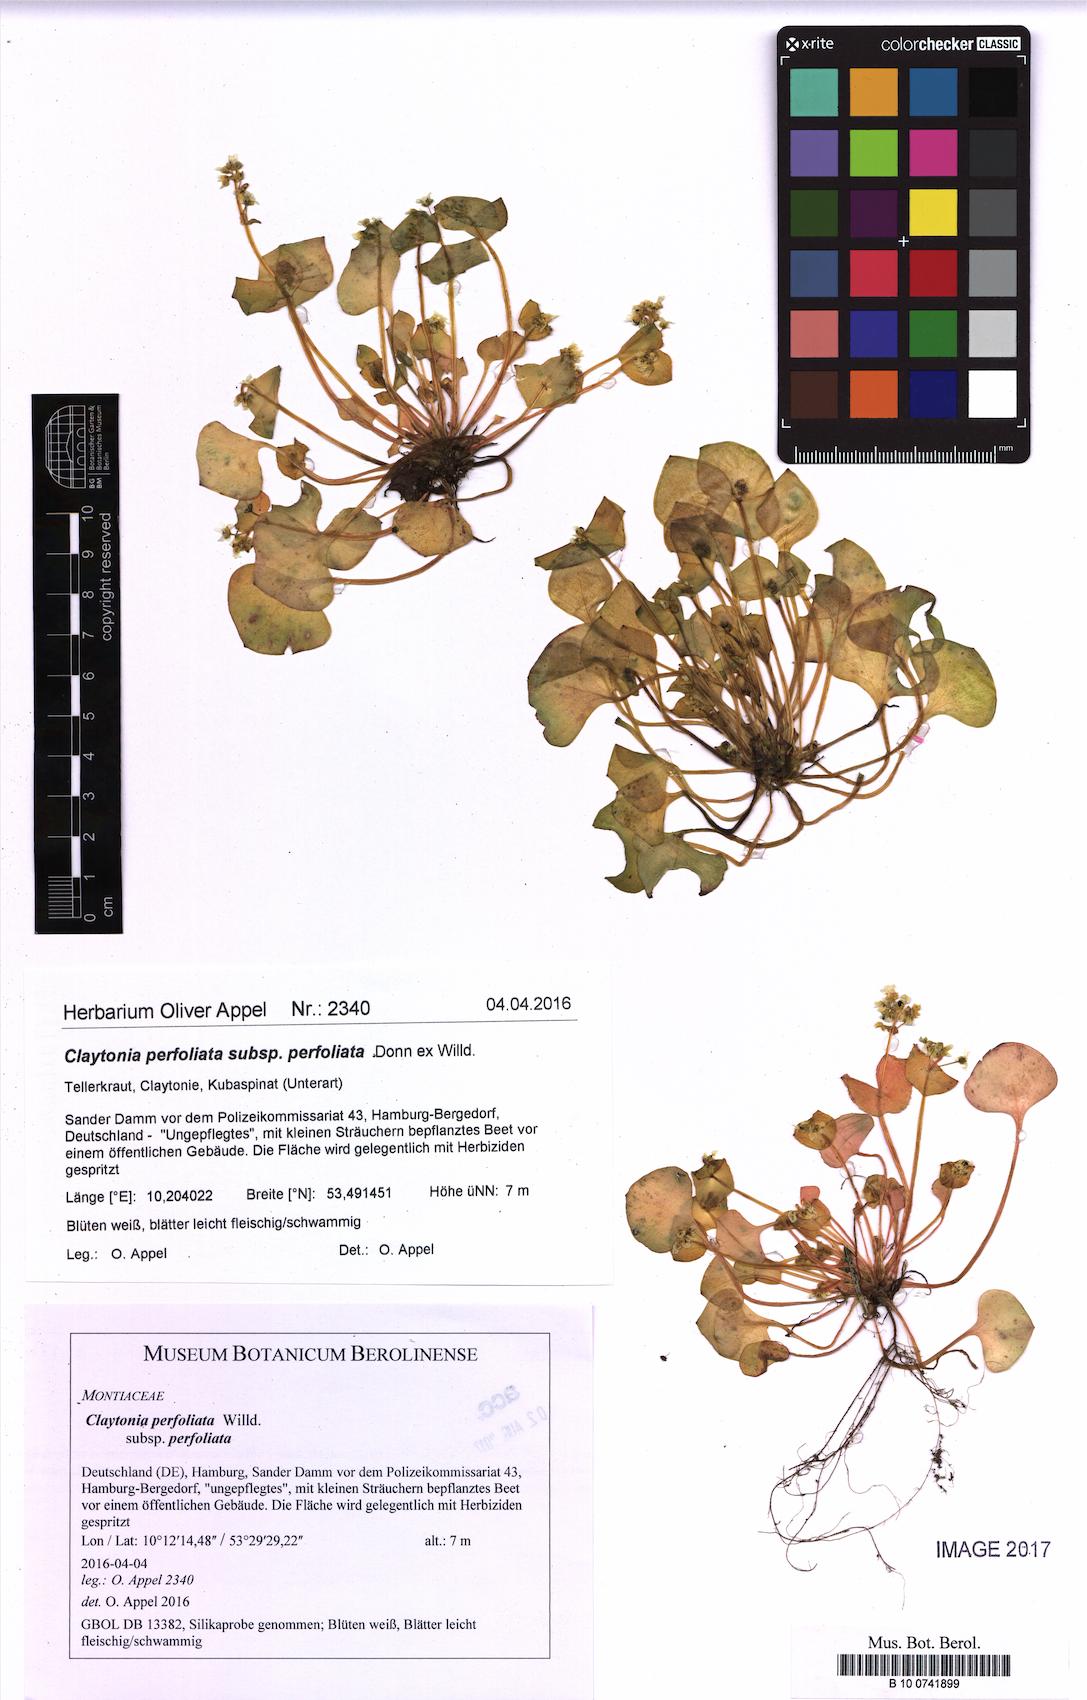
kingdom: Plantae
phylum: Tracheophyta
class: Magnoliopsida
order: Caryophyllales
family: Montiaceae
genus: Claytonia
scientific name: Claytonia perfoliata
